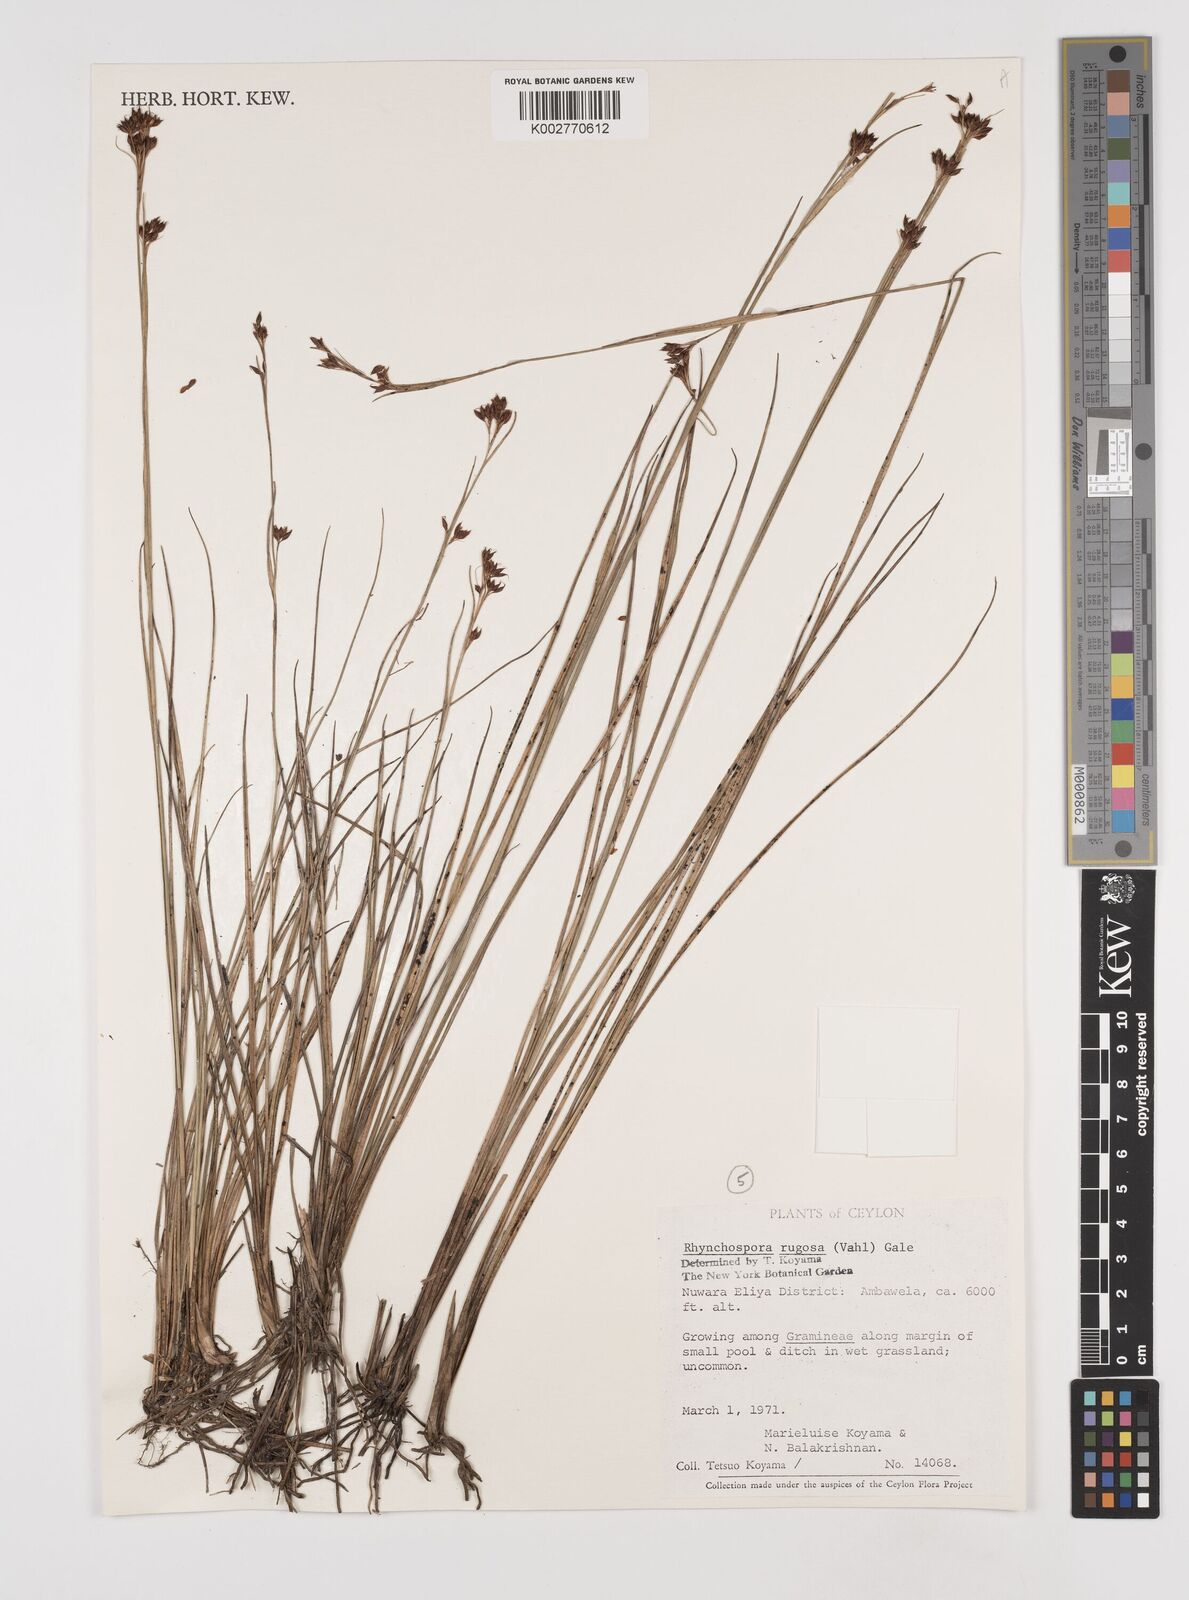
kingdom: Plantae
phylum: Tracheophyta
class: Liliopsida
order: Poales
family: Cyperaceae
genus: Rhynchospora
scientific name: Rhynchospora rugosa
